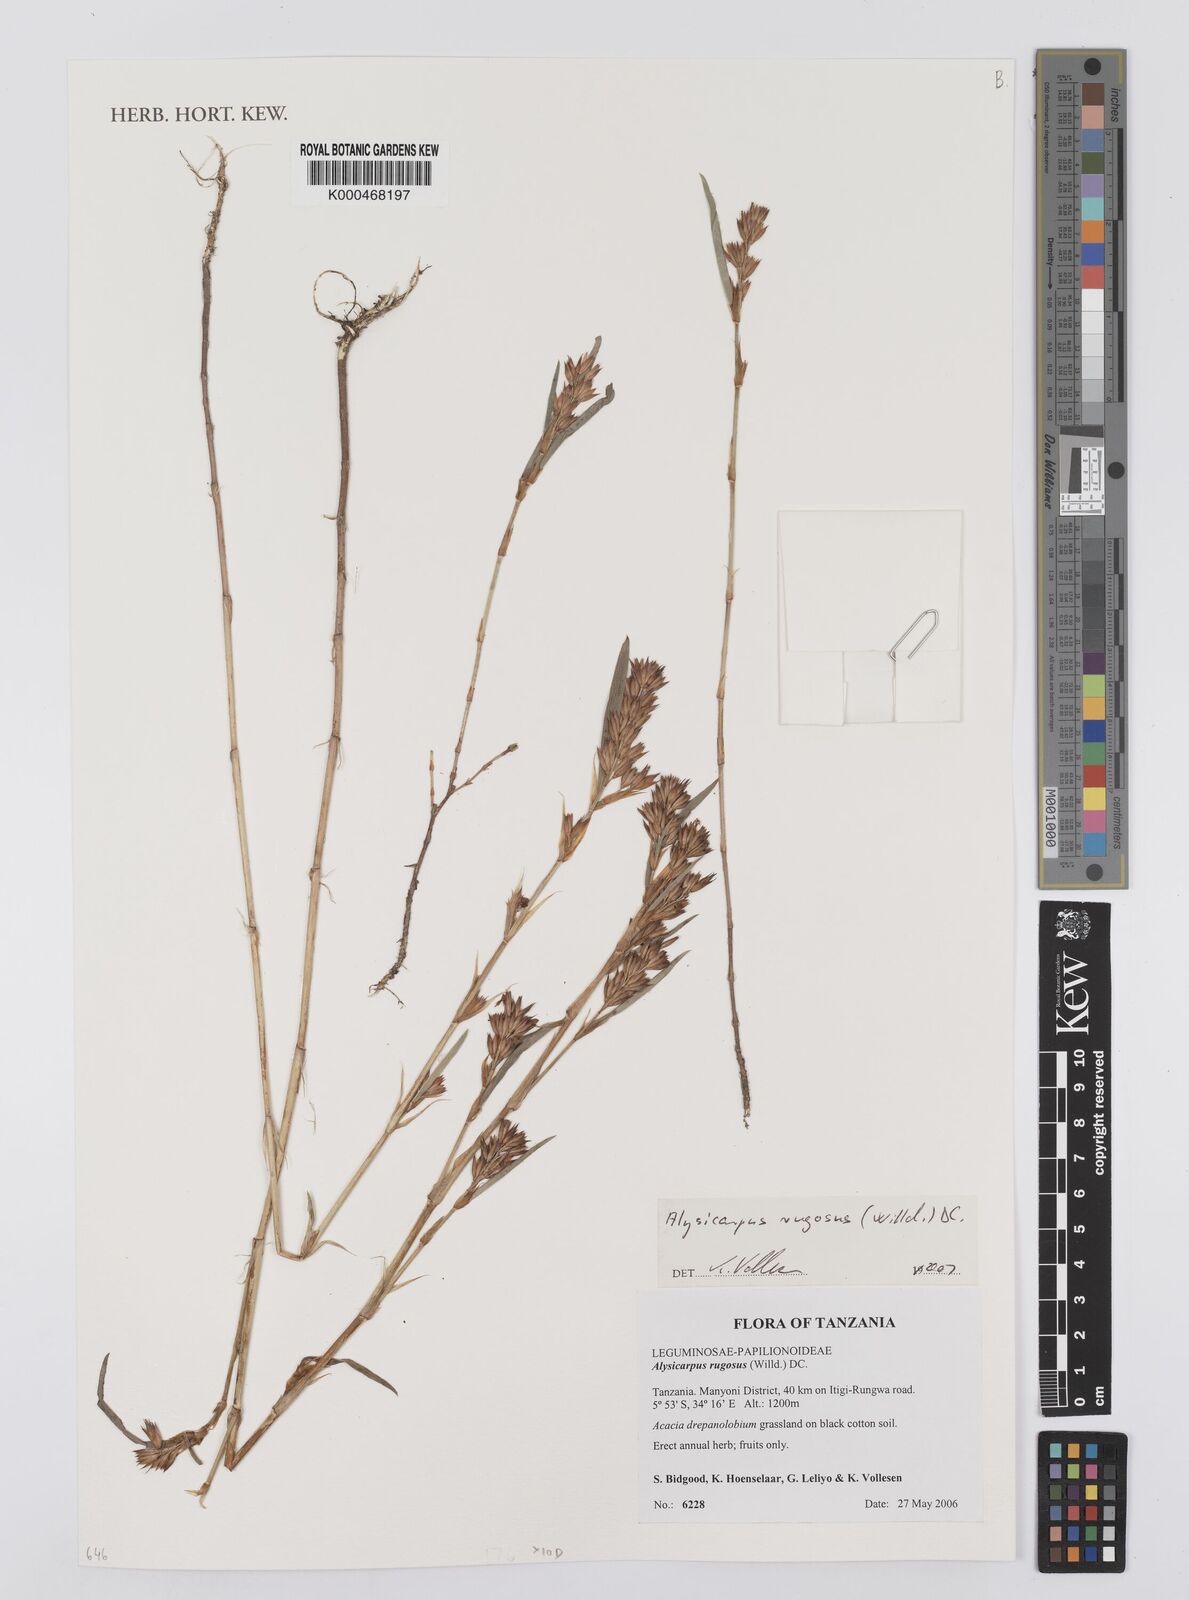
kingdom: Plantae
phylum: Tracheophyta
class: Magnoliopsida
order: Fabales
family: Fabaceae
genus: Alysicarpus
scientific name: Alysicarpus rugosus
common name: Red moneywort
